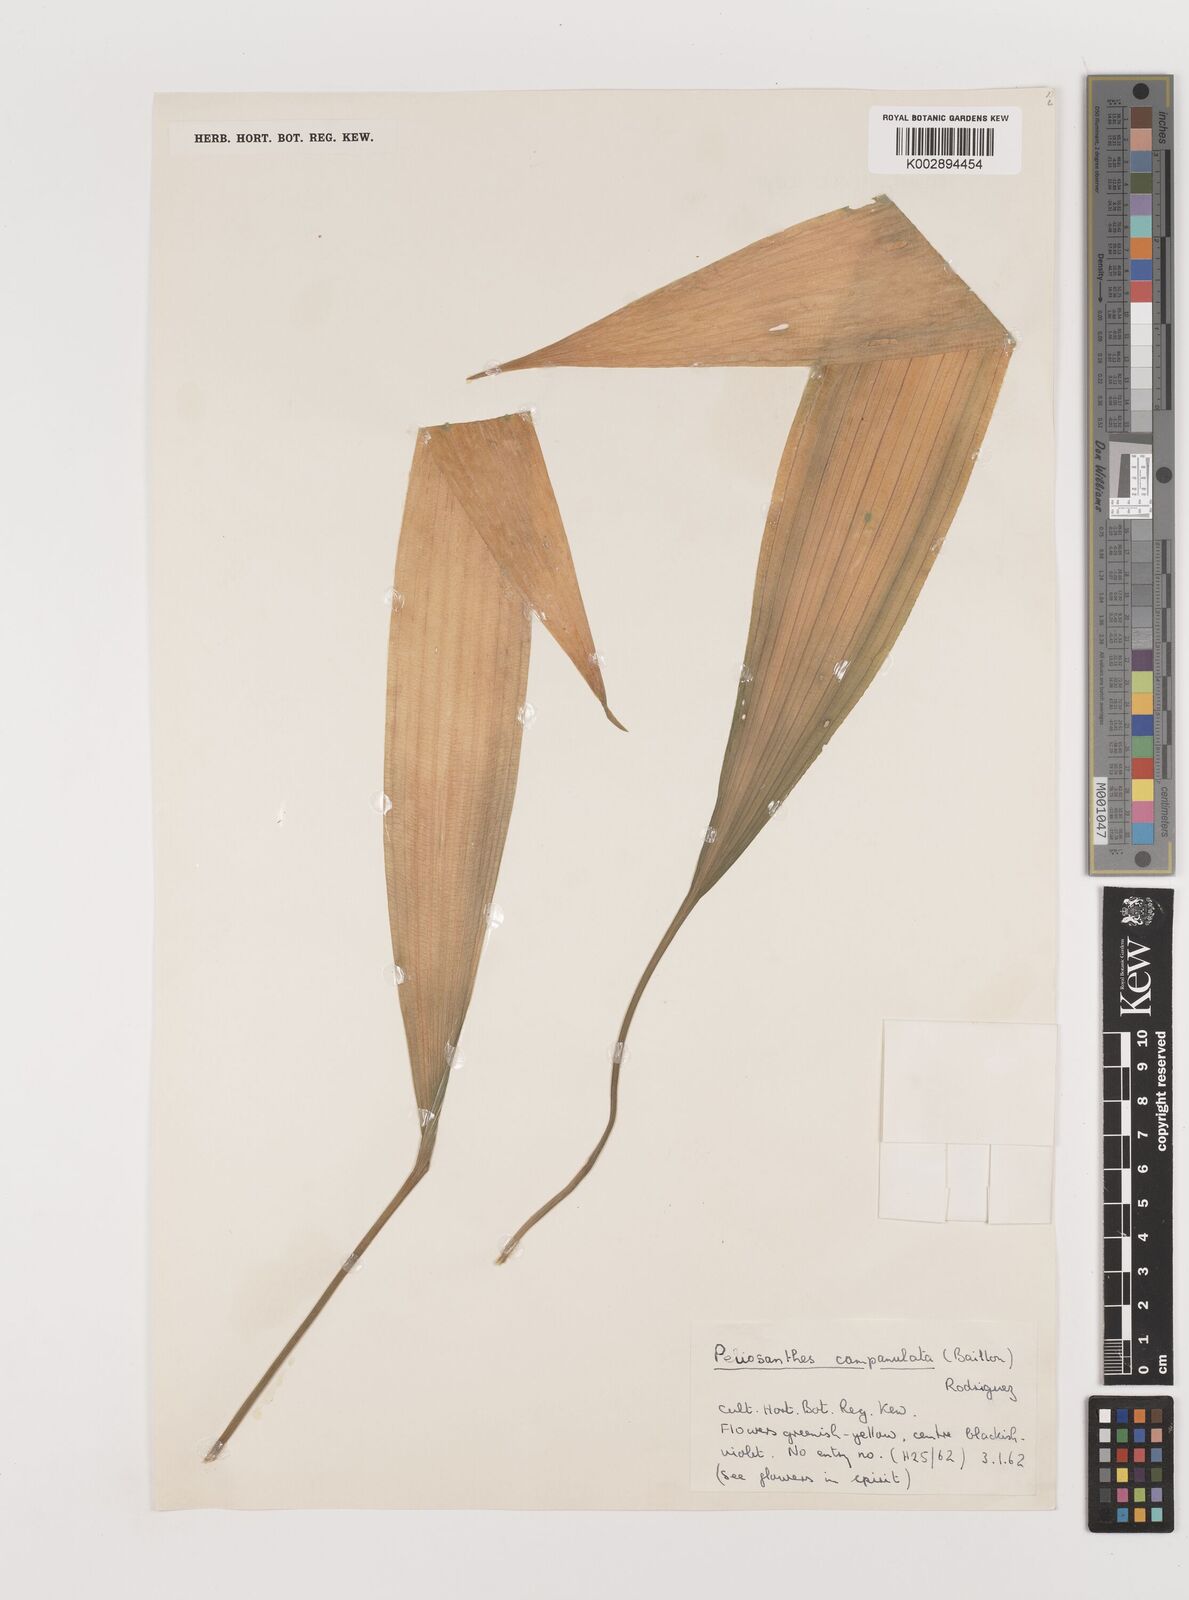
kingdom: Plantae
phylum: Tracheophyta
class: Liliopsida
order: Asparagales
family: Asparagaceae
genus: Peliosanthes
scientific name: Peliosanthes teta
